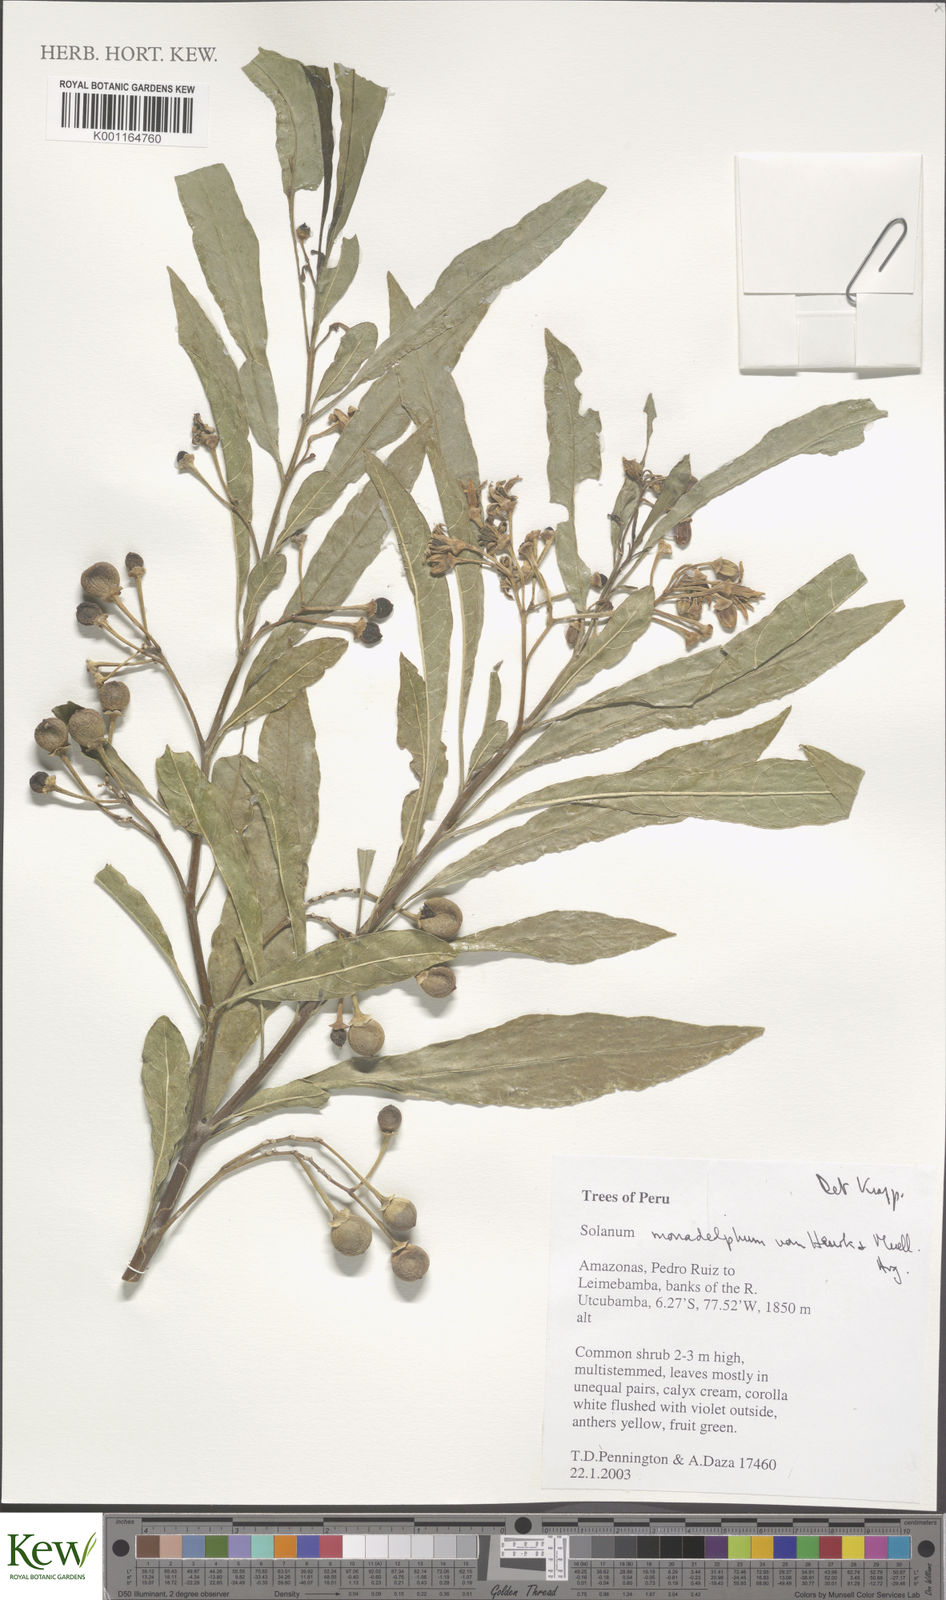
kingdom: Plantae
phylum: Tracheophyta
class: Magnoliopsida
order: Solanales
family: Solanaceae
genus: Solanum
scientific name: Solanum monadelphum
